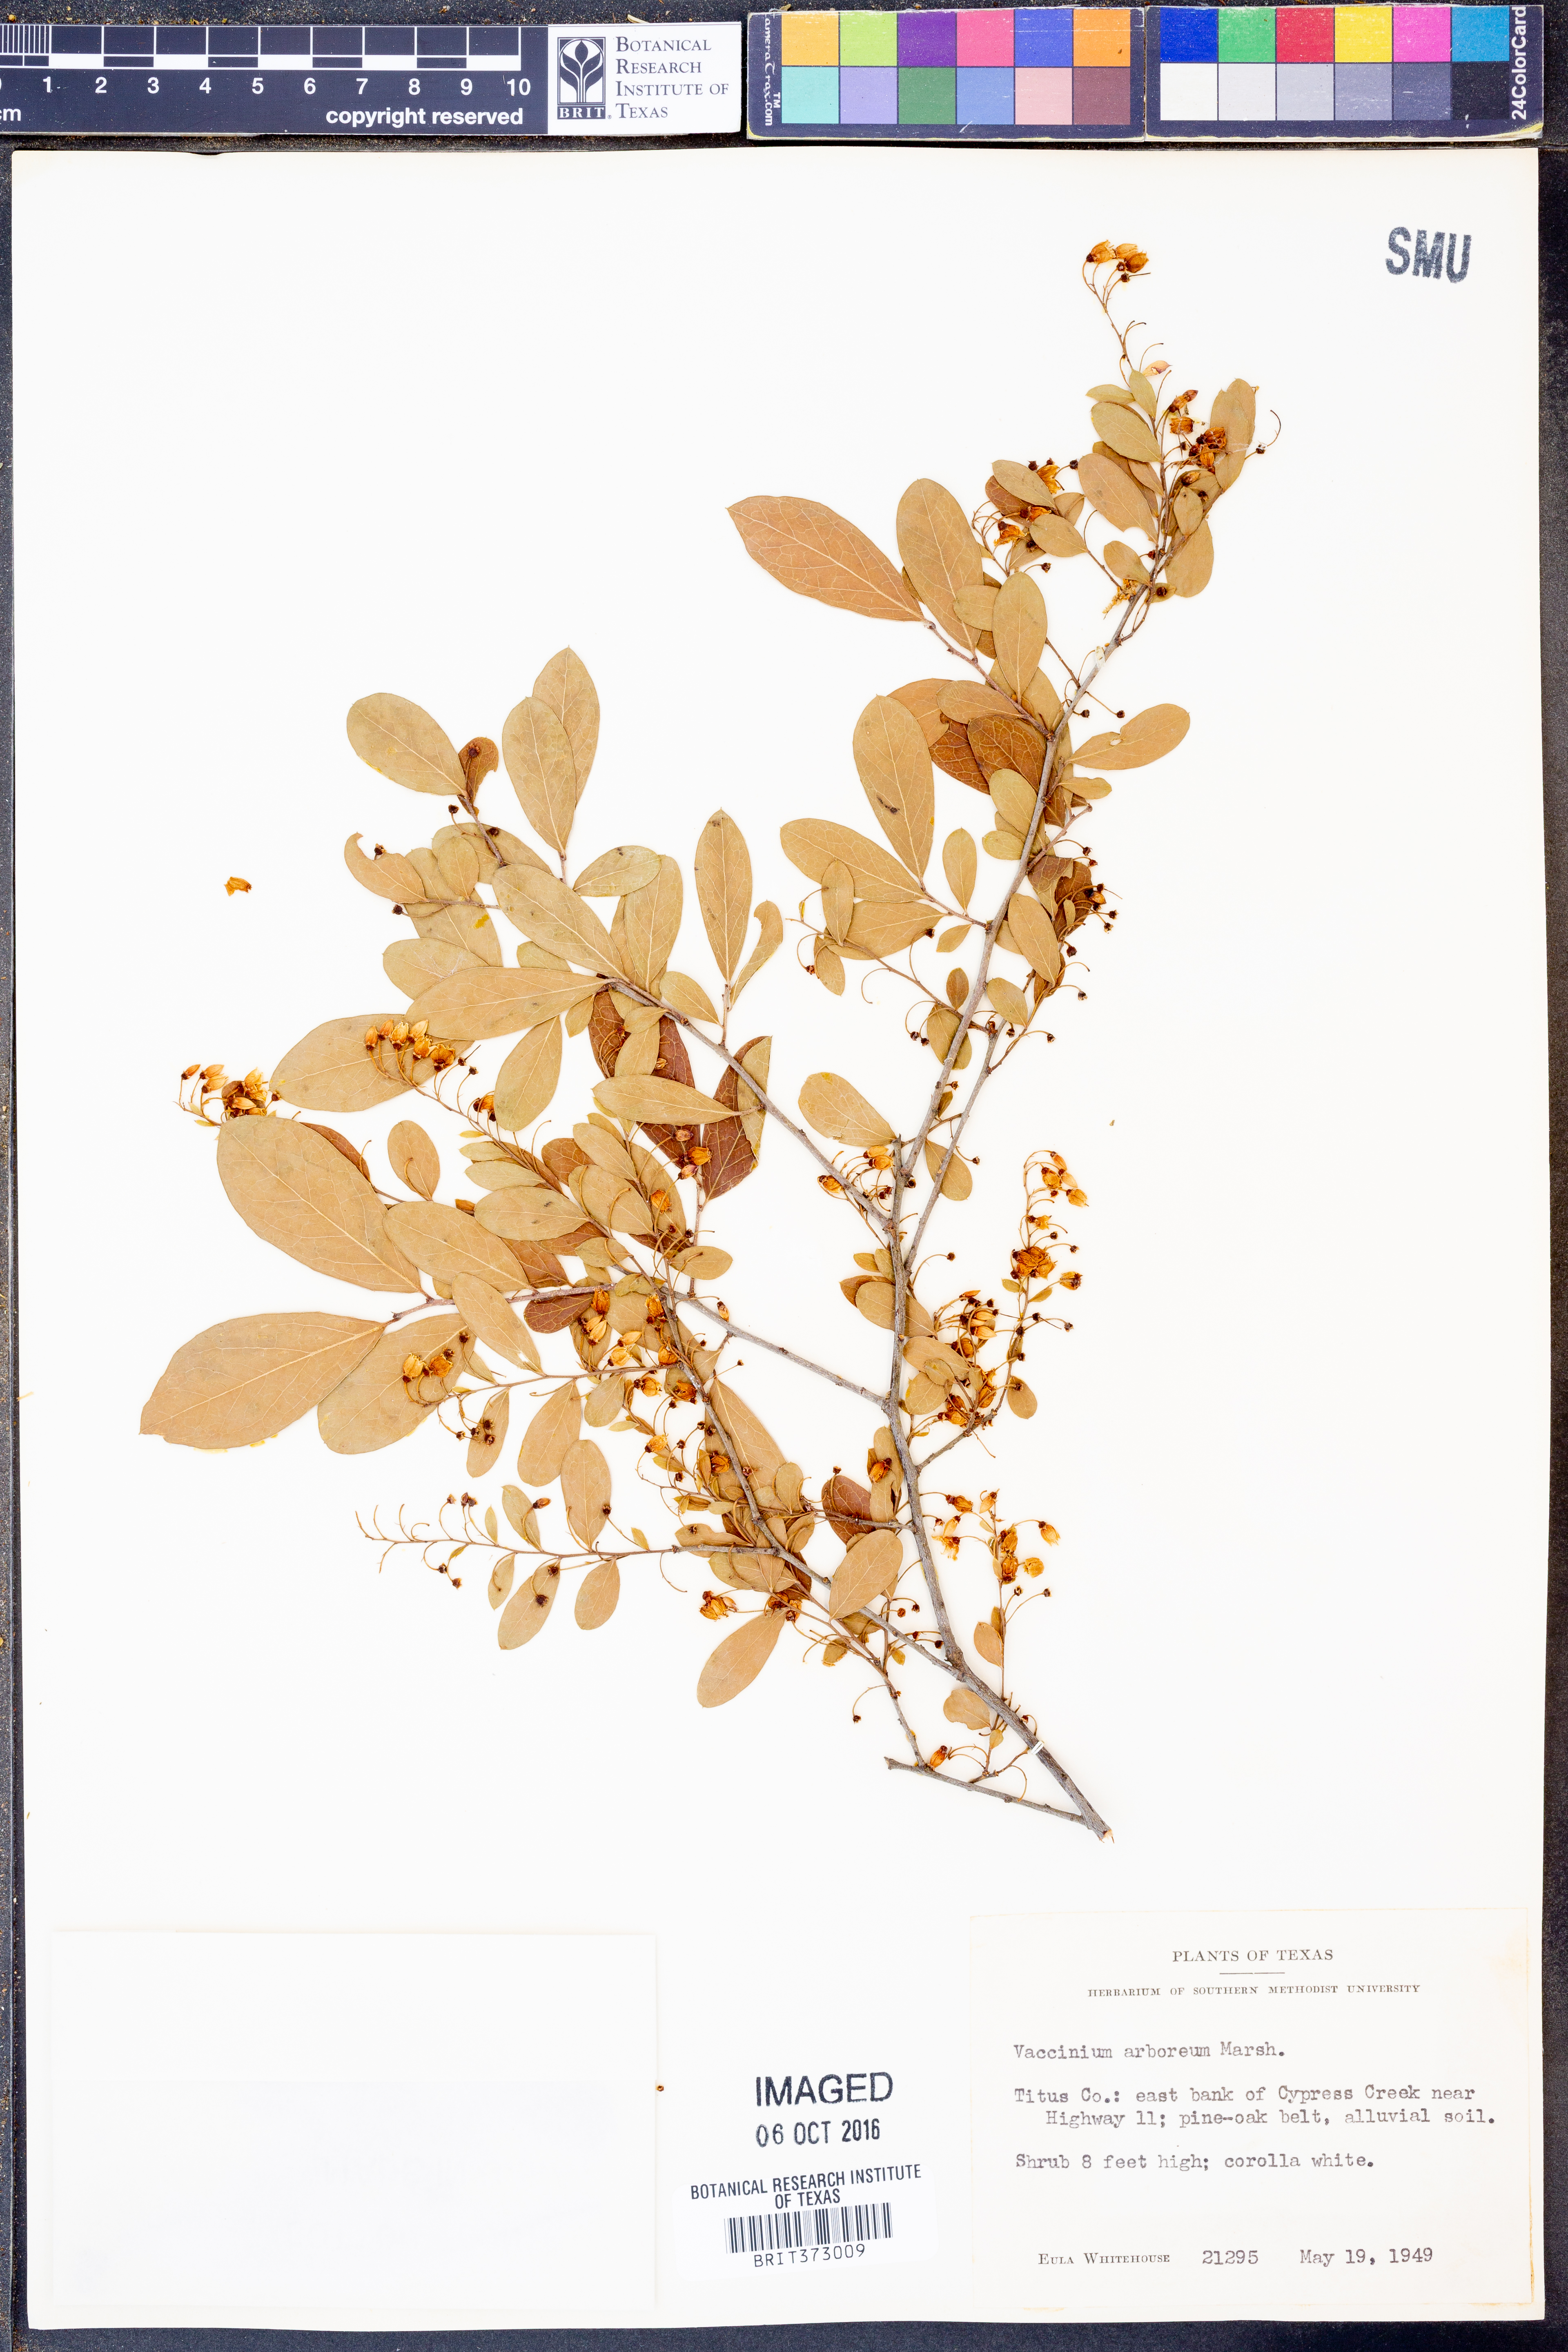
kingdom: Plantae
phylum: Tracheophyta
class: Magnoliopsida
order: Ericales
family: Ericaceae
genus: Vaccinium
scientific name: Vaccinium arboreum
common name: Farkleberry
